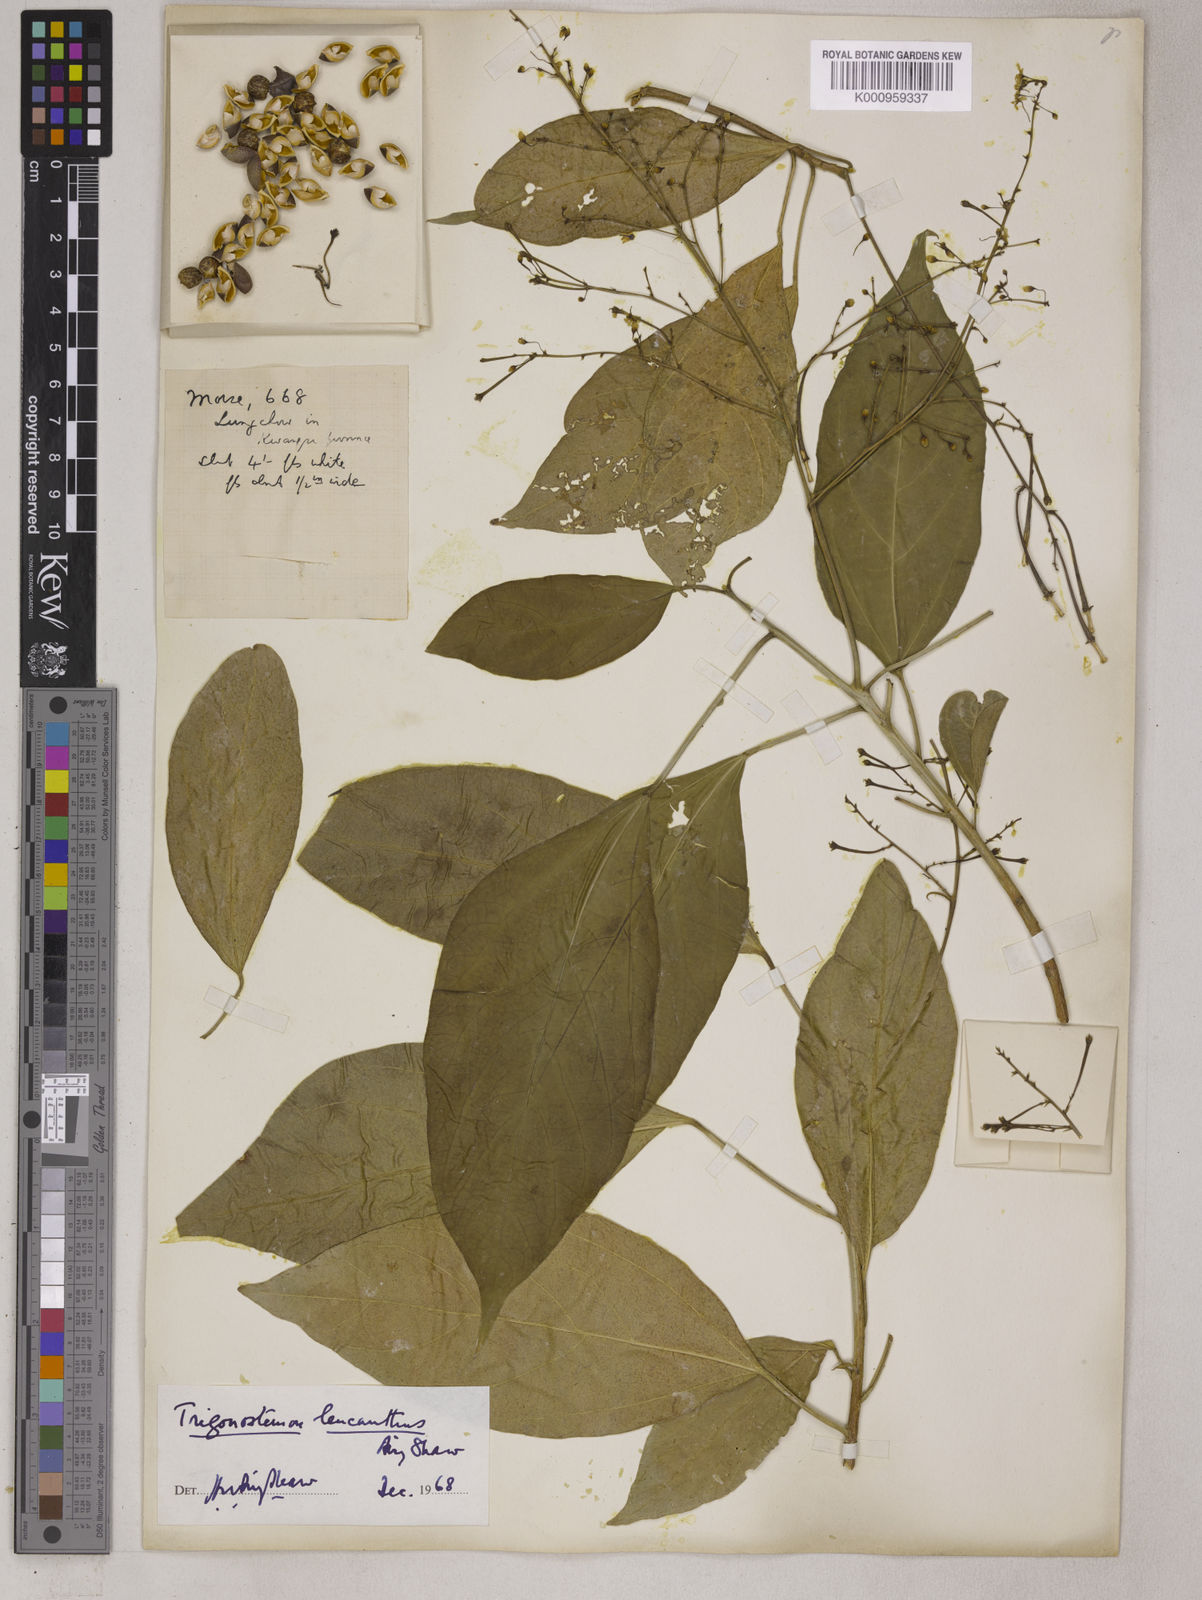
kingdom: Plantae
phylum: Tracheophyta
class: Magnoliopsida
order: Malpighiales
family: Euphorbiaceae
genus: Trigonostemon
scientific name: Trigonostemon eberhardtii
